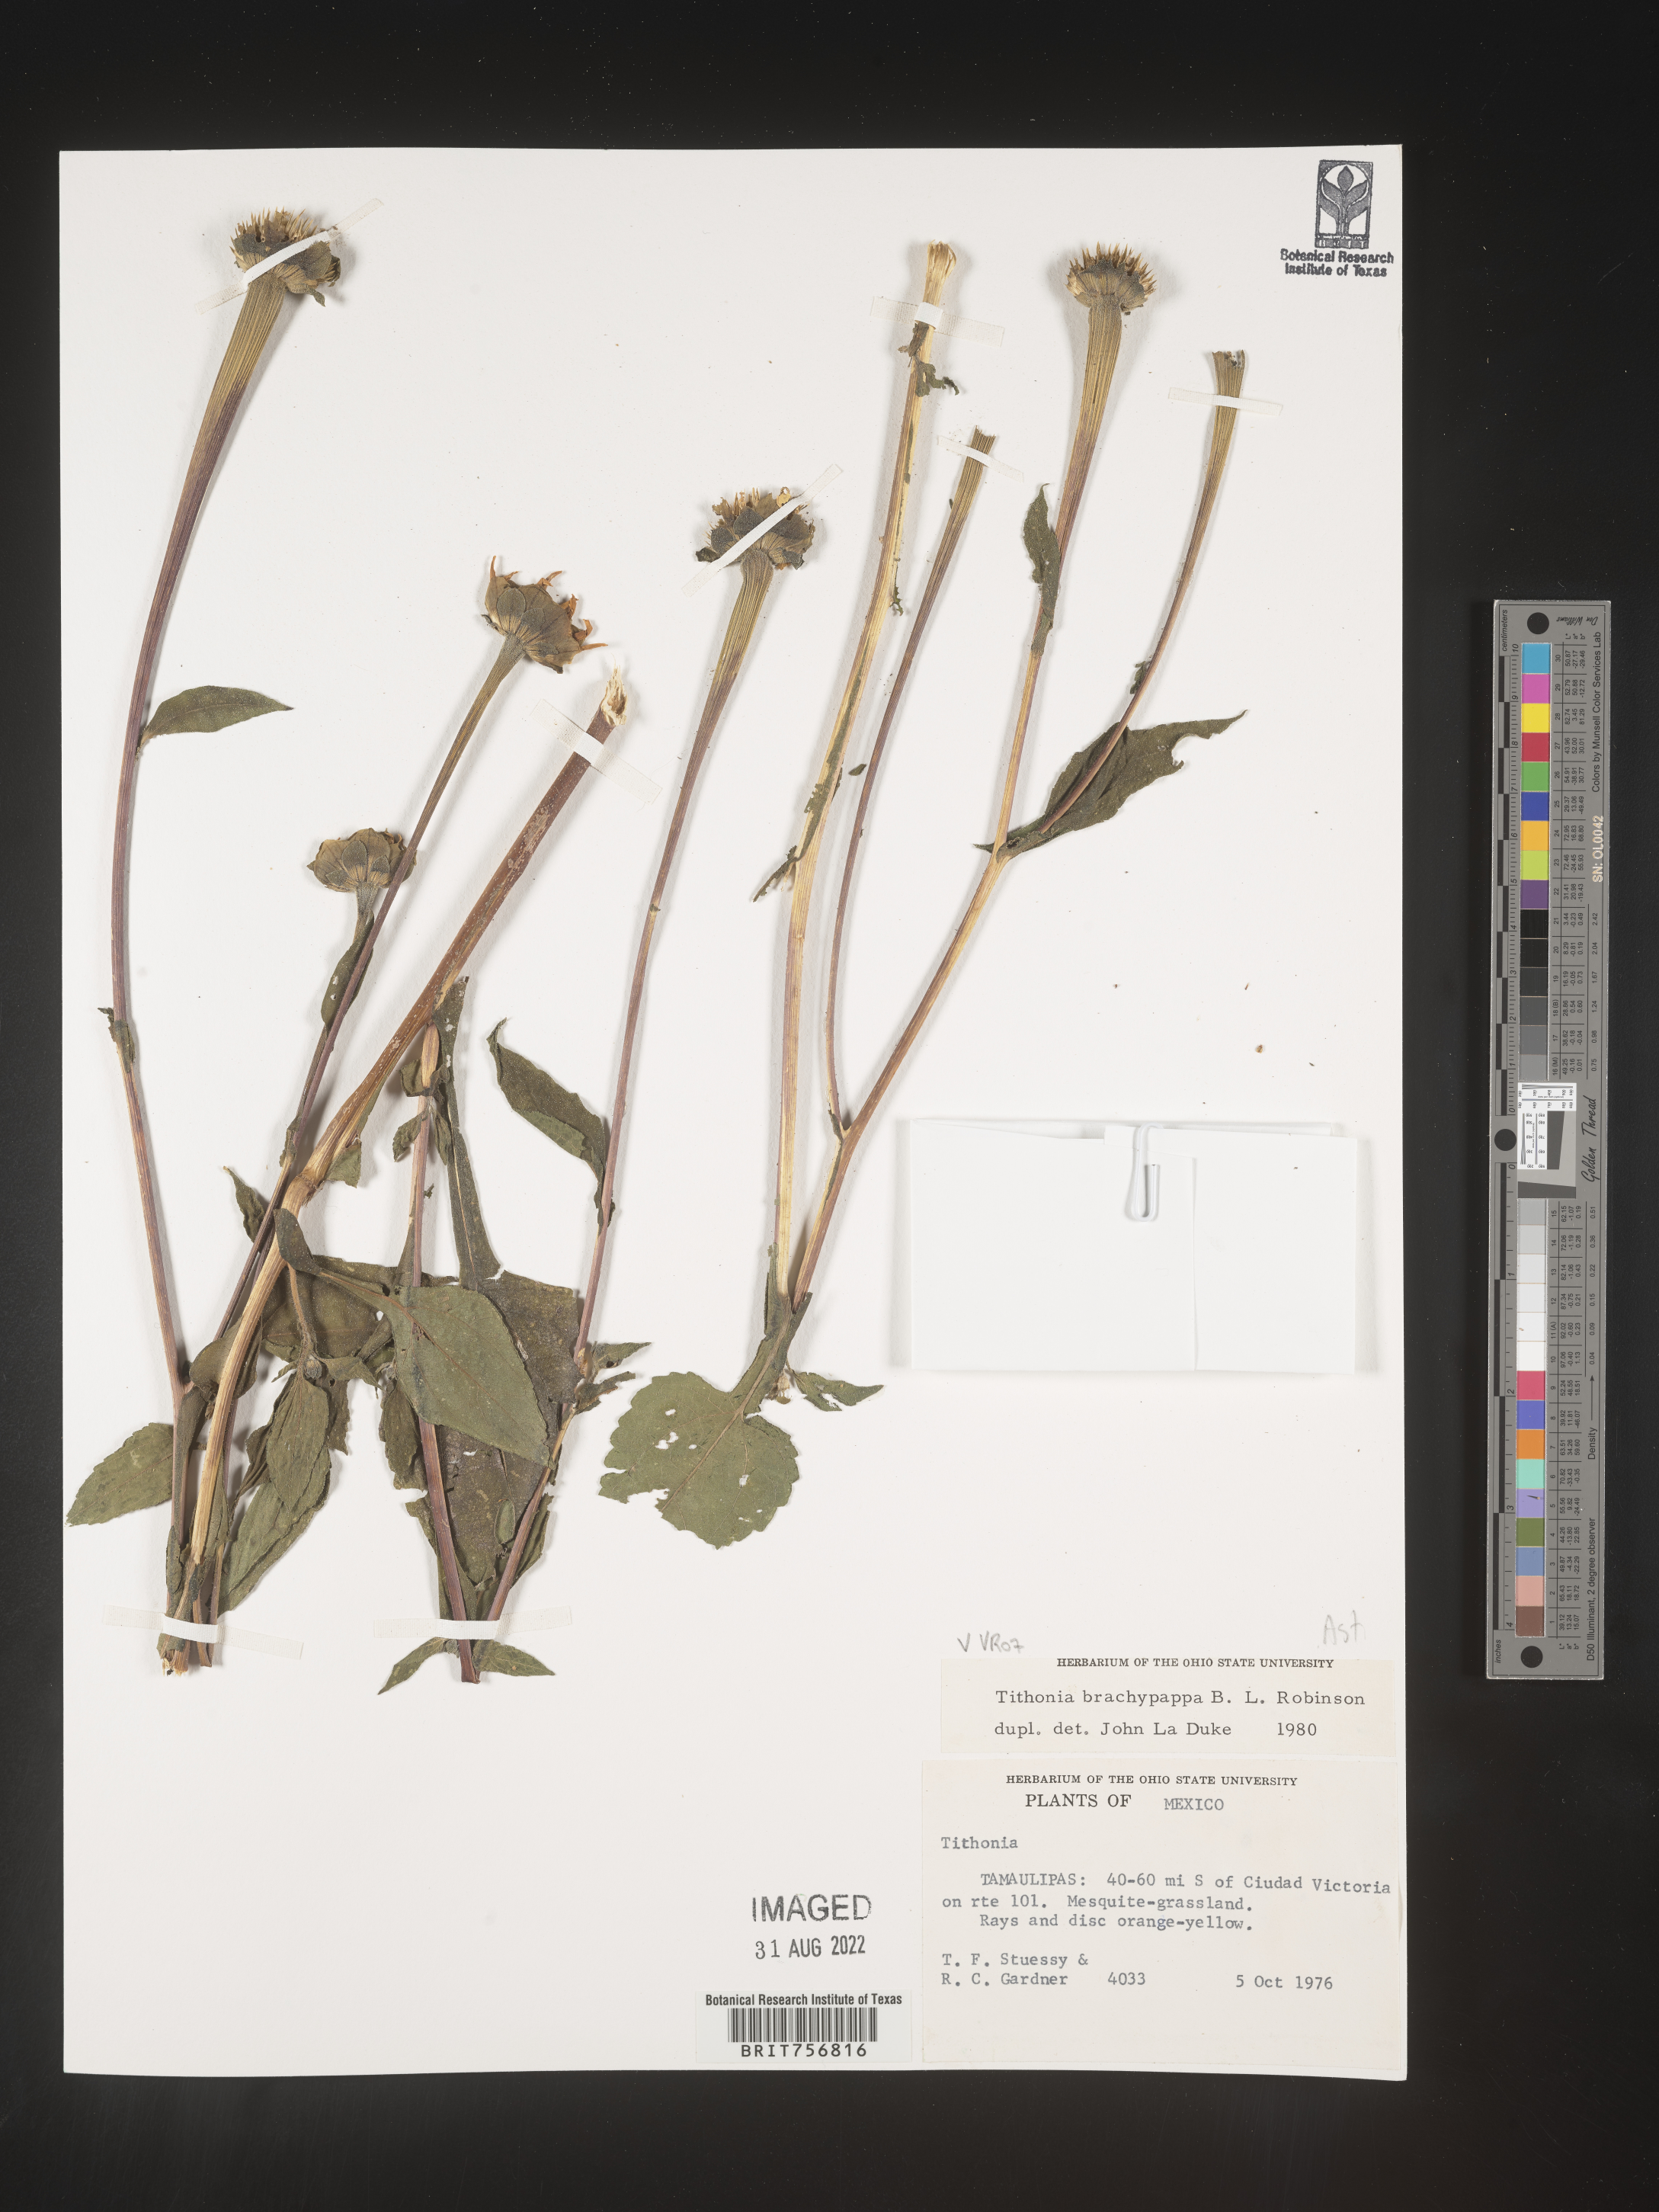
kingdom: Plantae
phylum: Tracheophyta
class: Magnoliopsida
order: Asterales
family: Asteraceae
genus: Tithonia
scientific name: Tithonia
